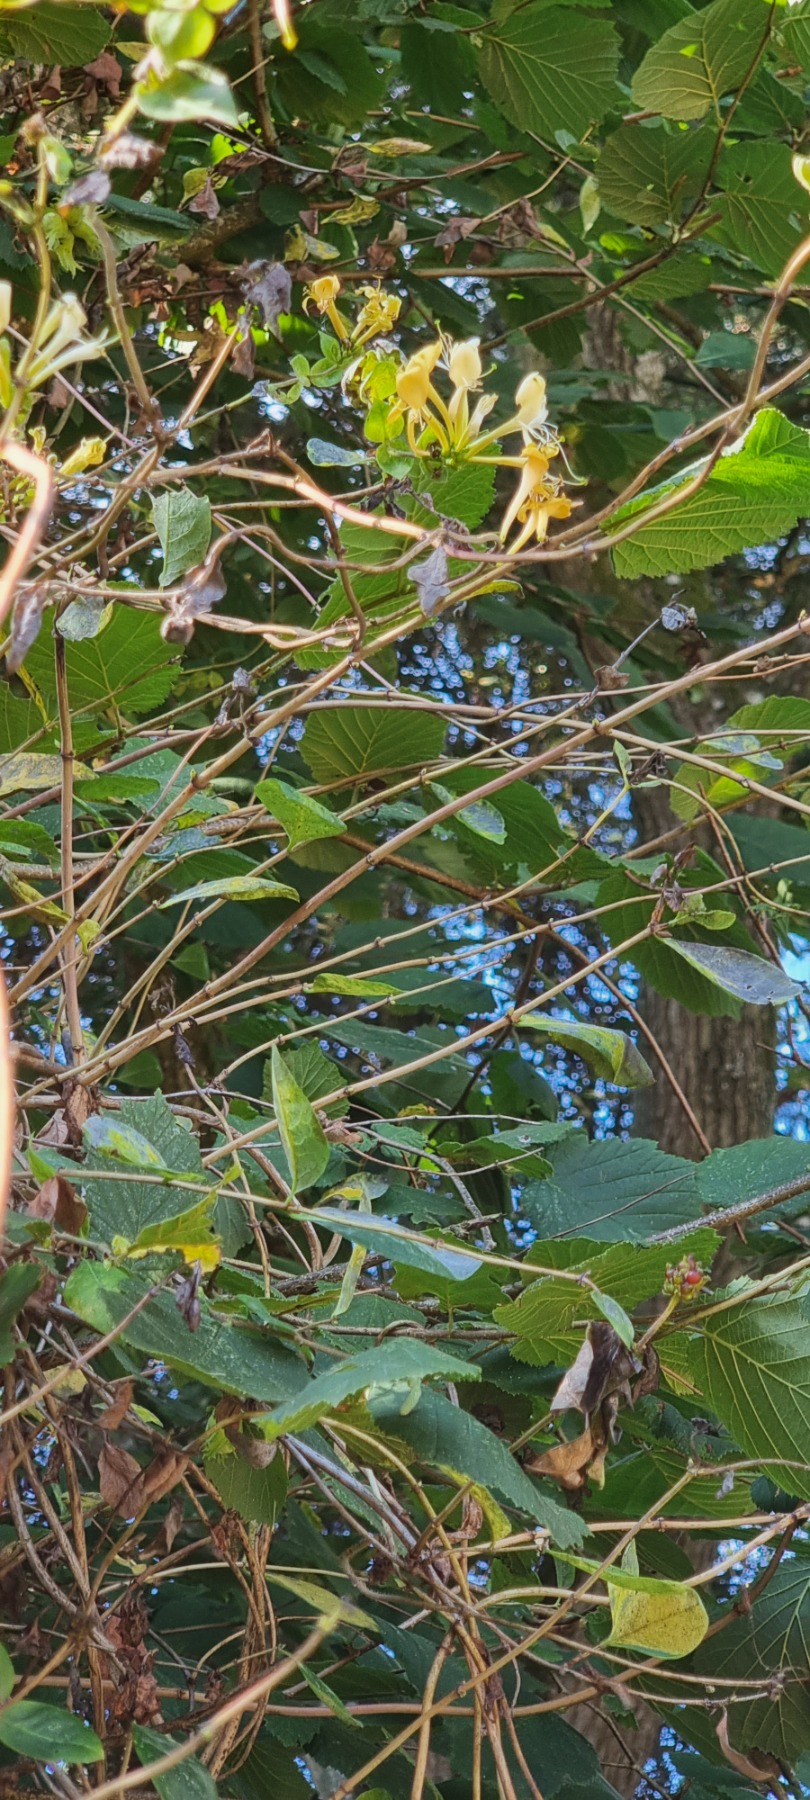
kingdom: Plantae
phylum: Tracheophyta
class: Magnoliopsida
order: Dipsacales
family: Caprifoliaceae
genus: Lonicera
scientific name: Lonicera periclymenum
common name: Almindelig gedeblad
